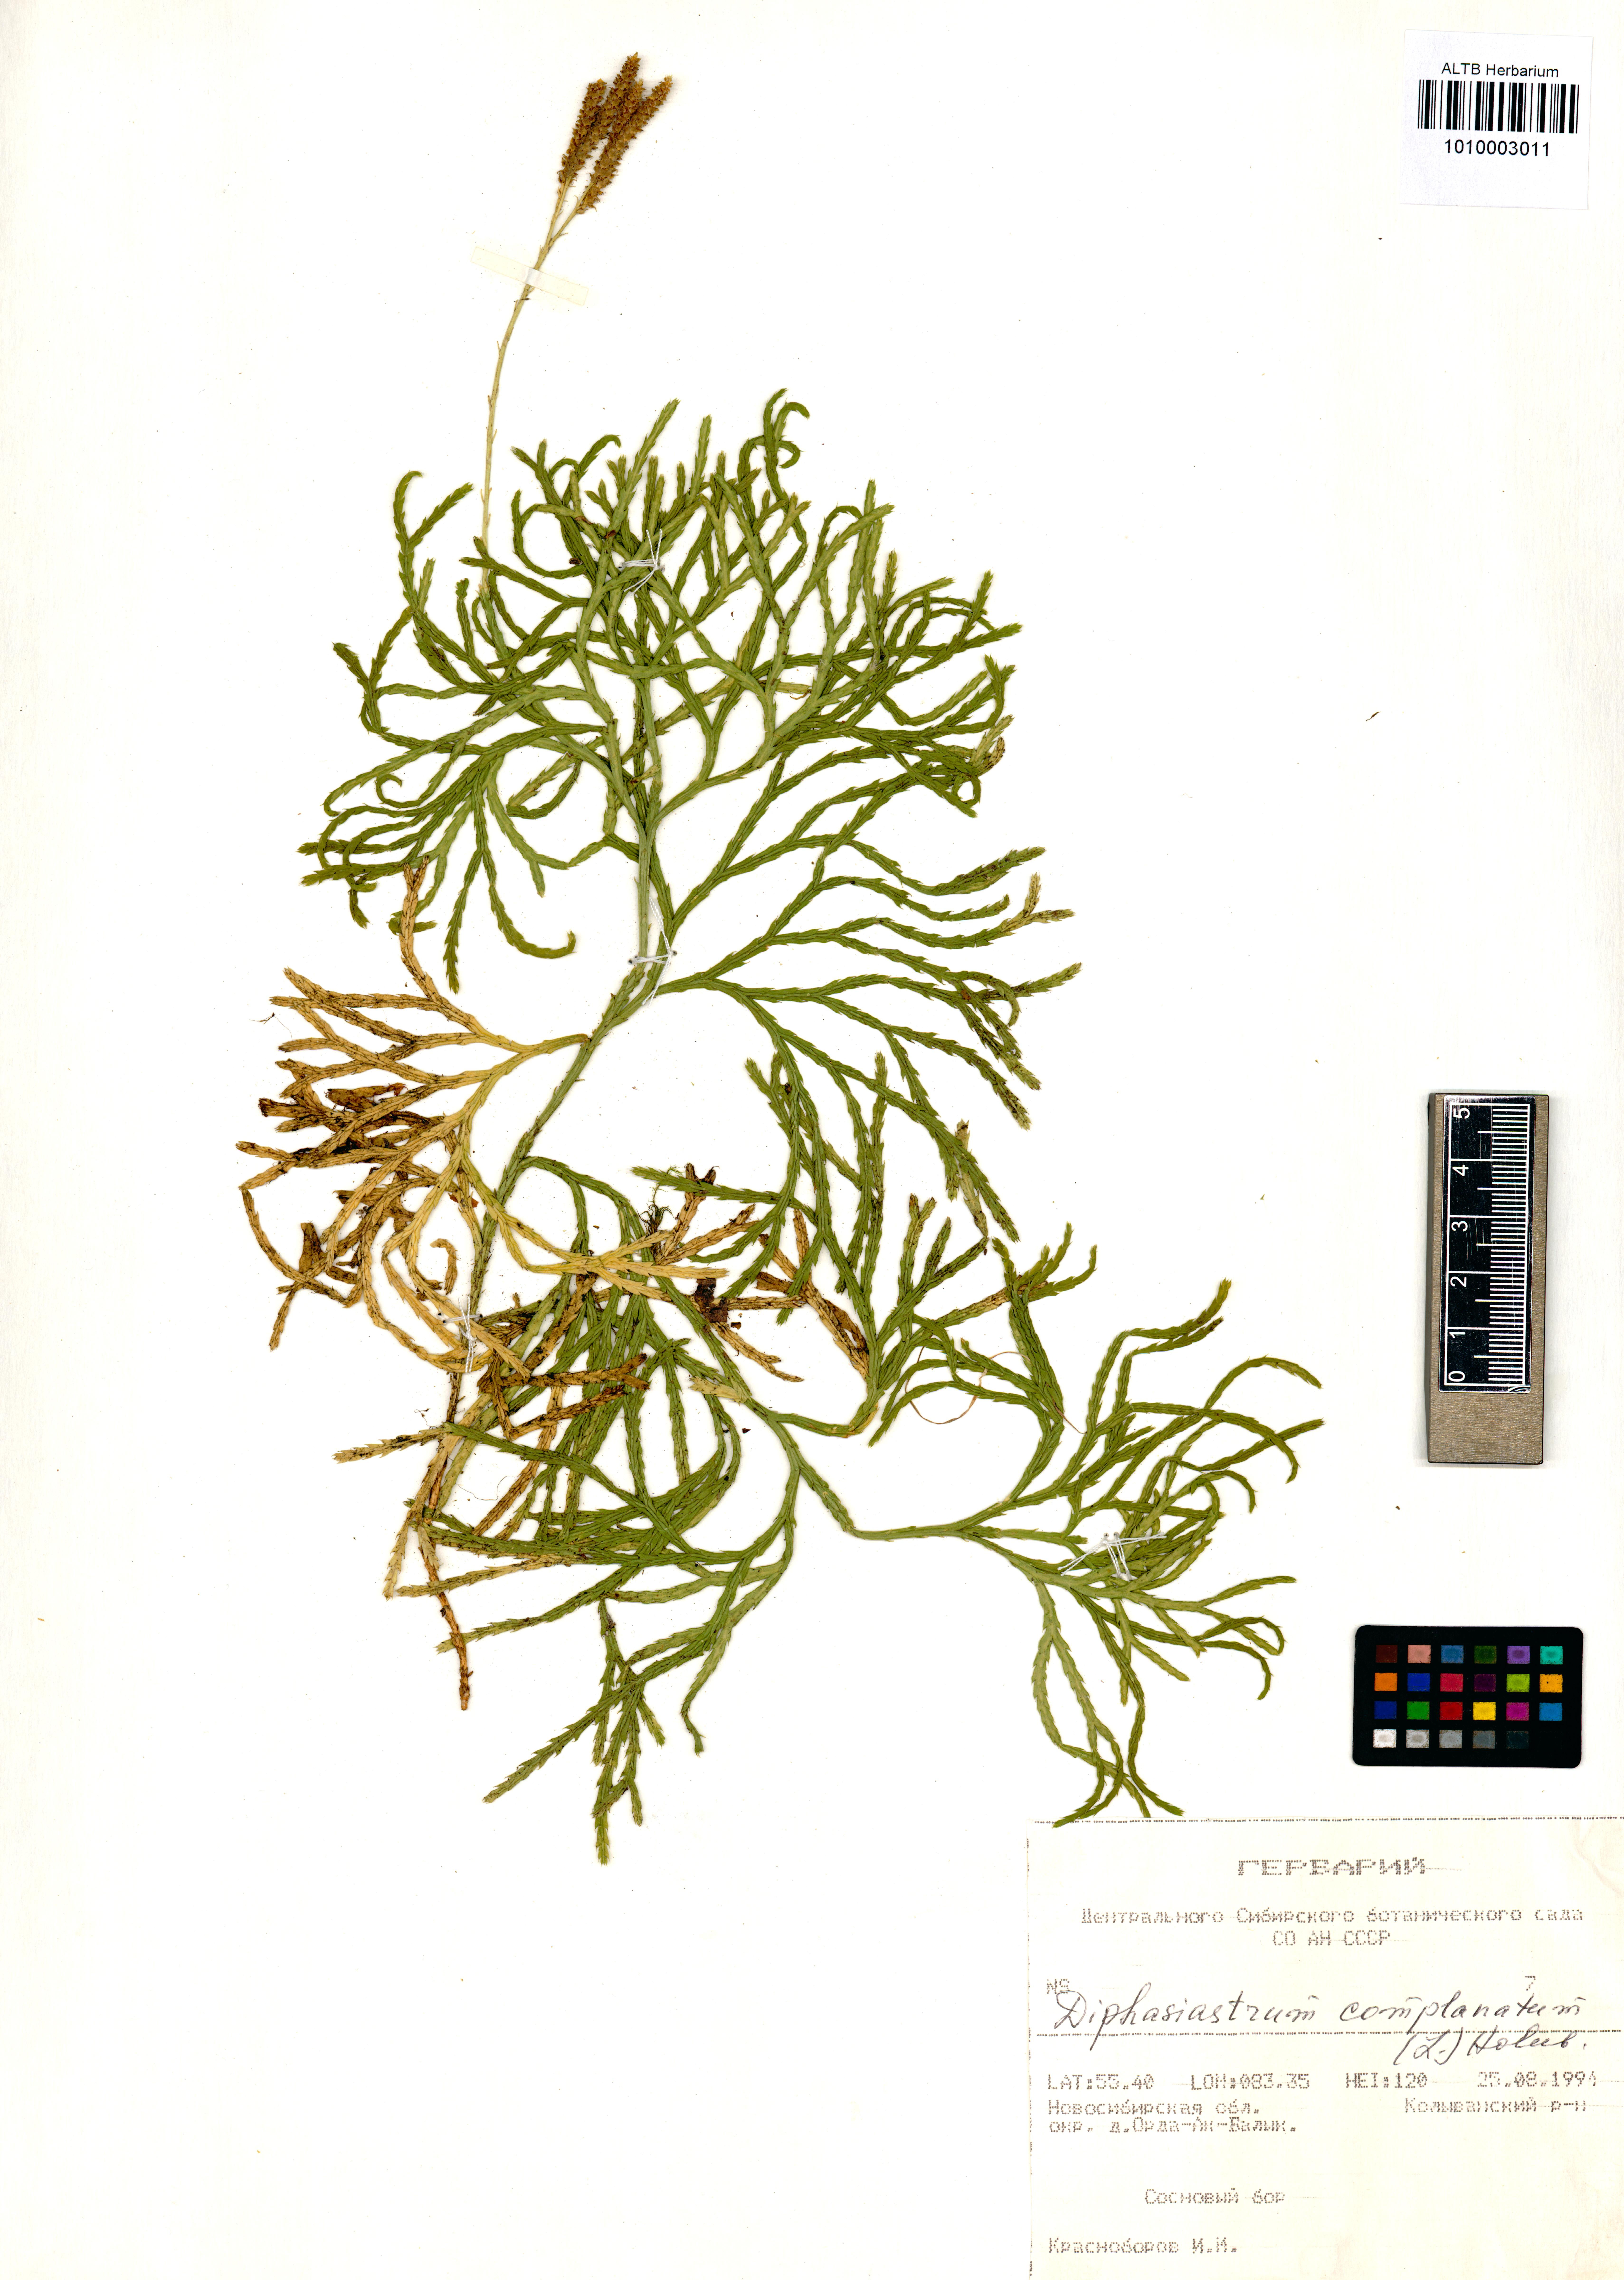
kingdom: Plantae
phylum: Tracheophyta
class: Lycopodiopsida
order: Lycopodiales
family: Lycopodiaceae
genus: Diphasiastrum
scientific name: Diphasiastrum complanatum
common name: Northern running-pine
